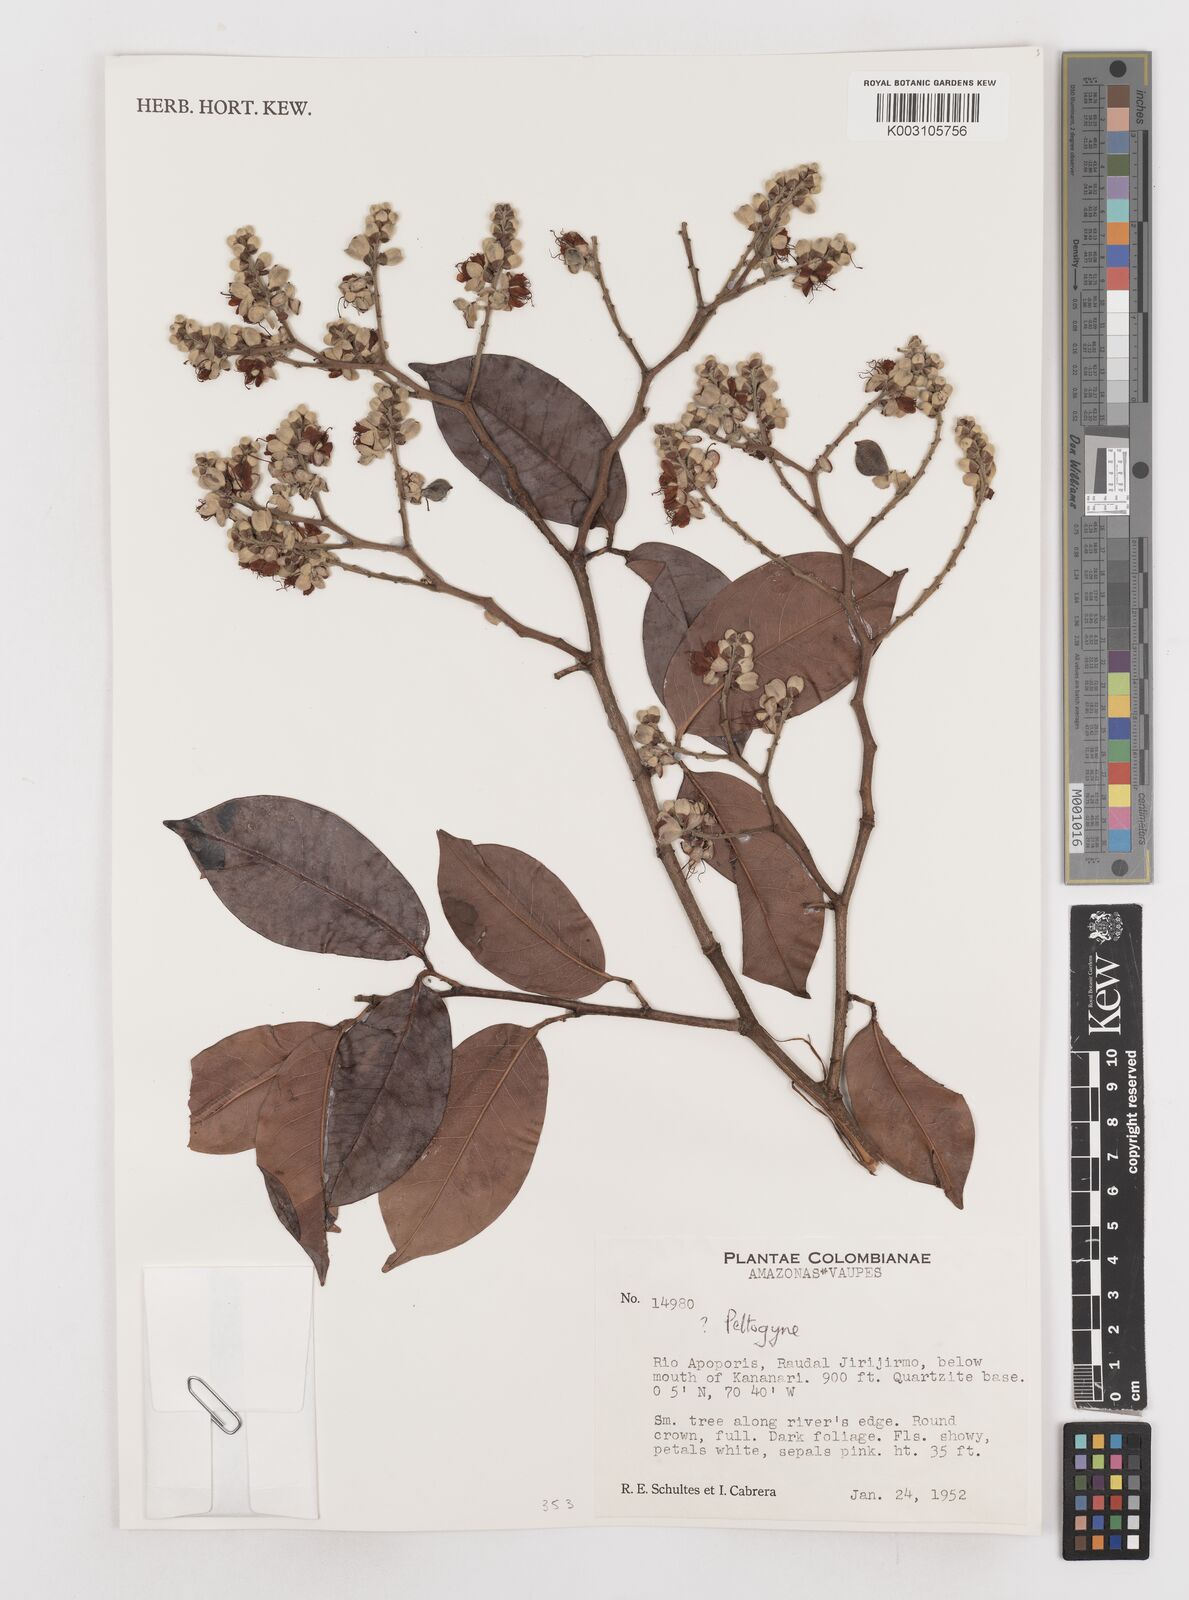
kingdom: Plantae
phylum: Tracheophyta
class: Magnoliopsida
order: Fabales
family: Fabaceae
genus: Peltogyne
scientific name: Peltogyne
